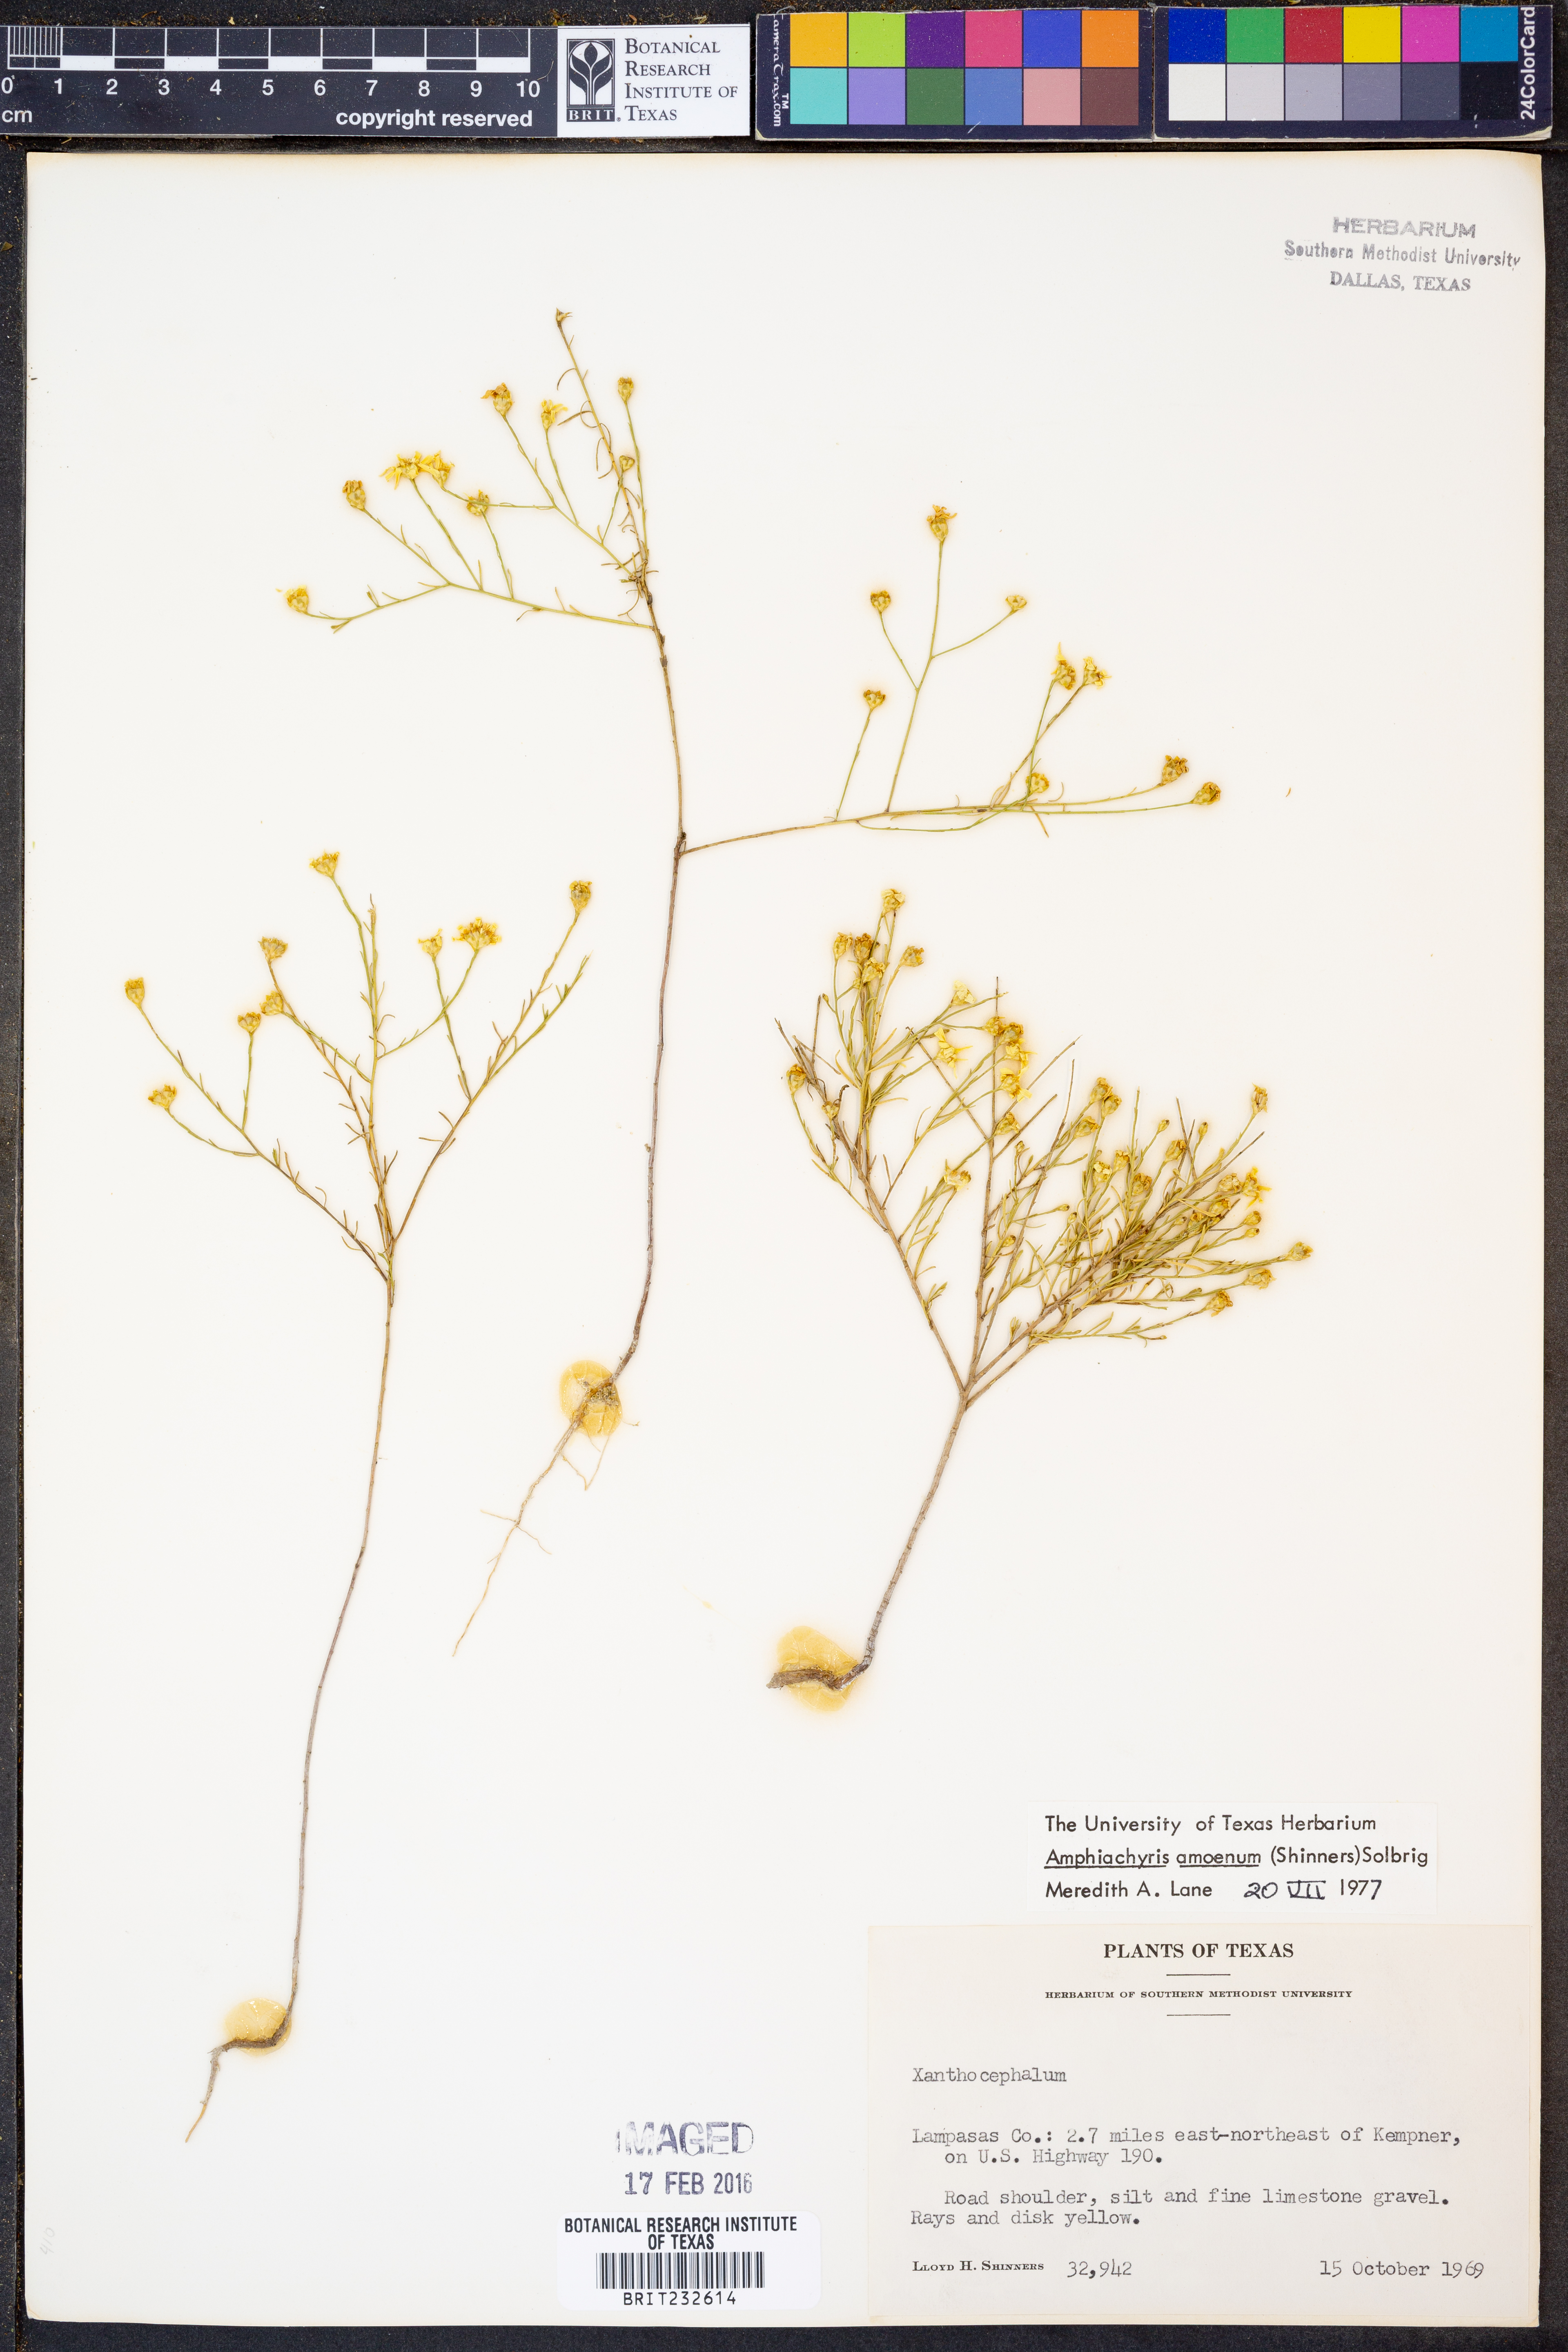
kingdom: Plantae
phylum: Tracheophyta
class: Magnoliopsida
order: Asterales
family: Asteraceae
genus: Amphiachyris
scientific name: Amphiachyris amoenum
